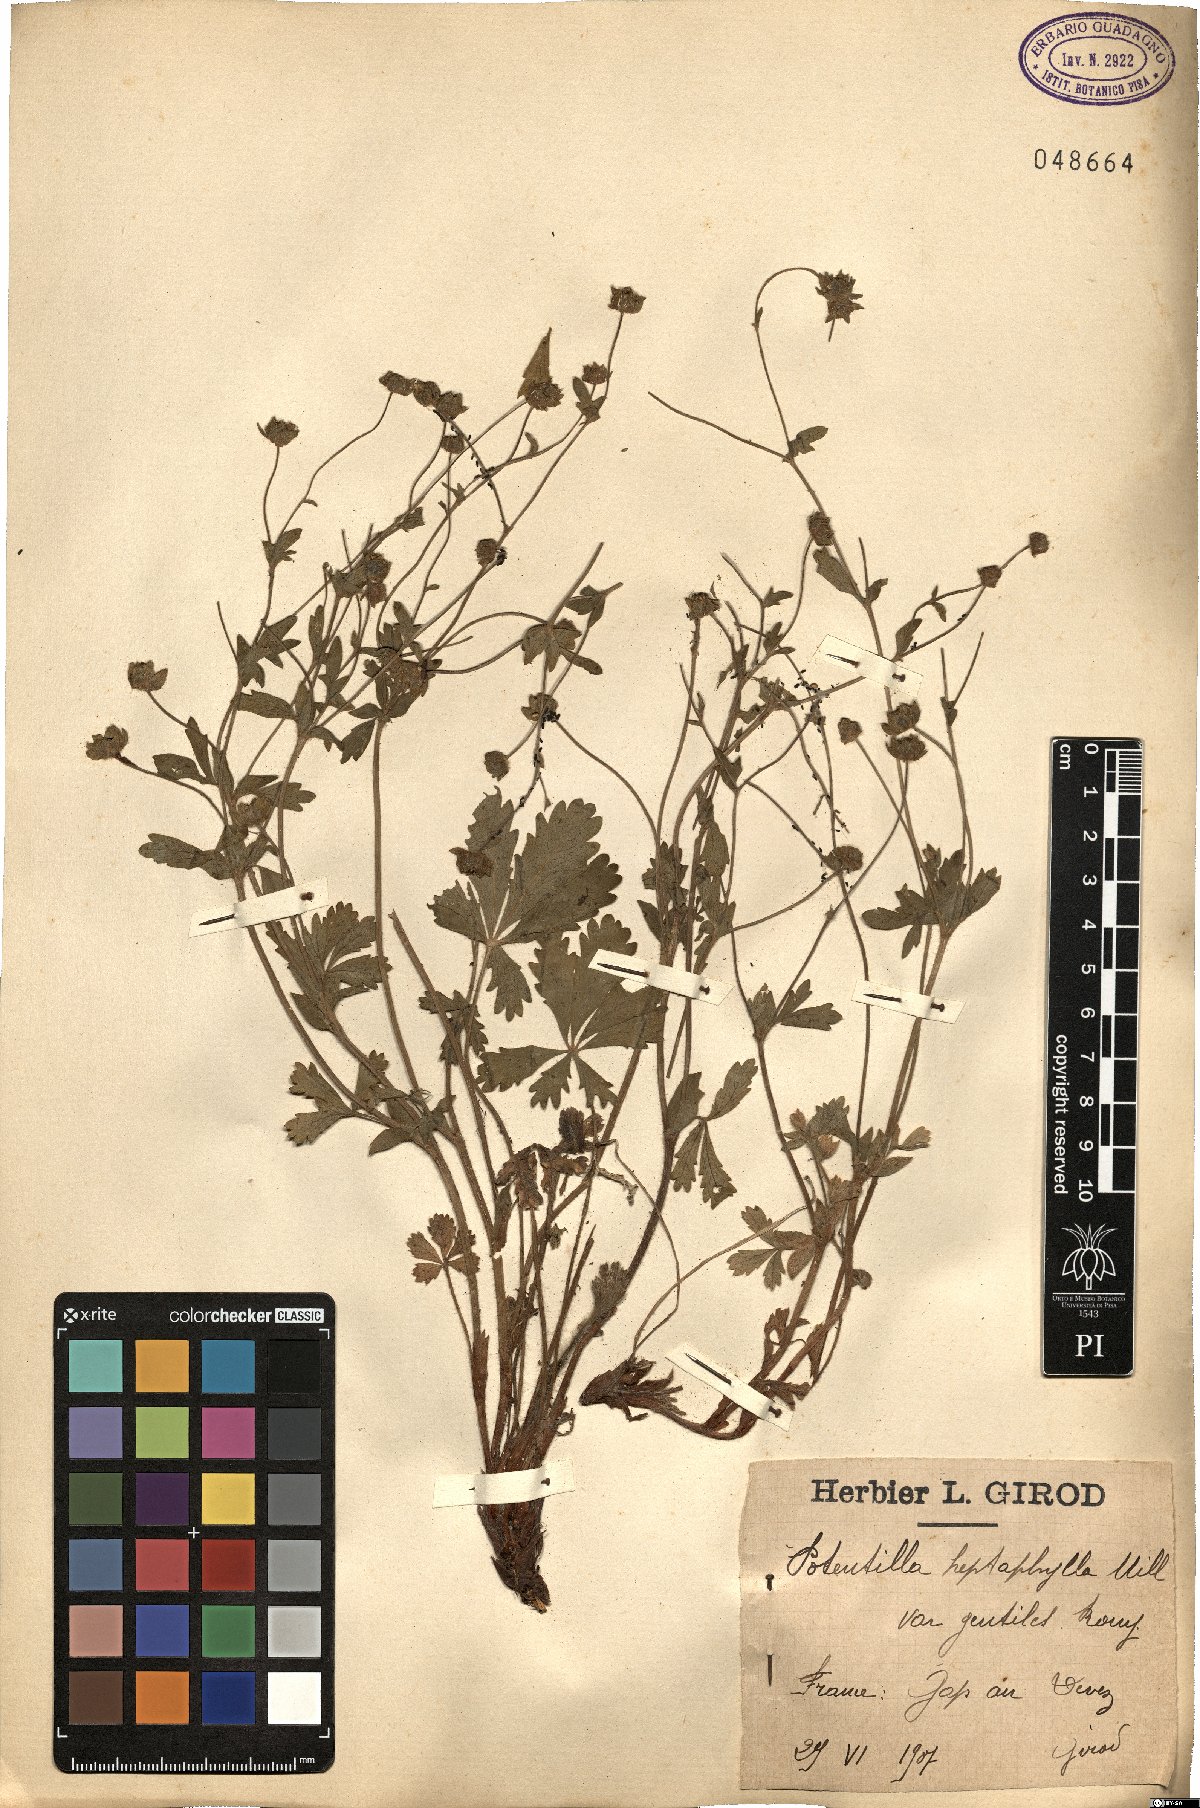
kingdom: Plantae
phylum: Tracheophyta
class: Magnoliopsida
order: Rosales
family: Rosaceae
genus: Potentilla
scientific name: Potentilla heptaphylla
